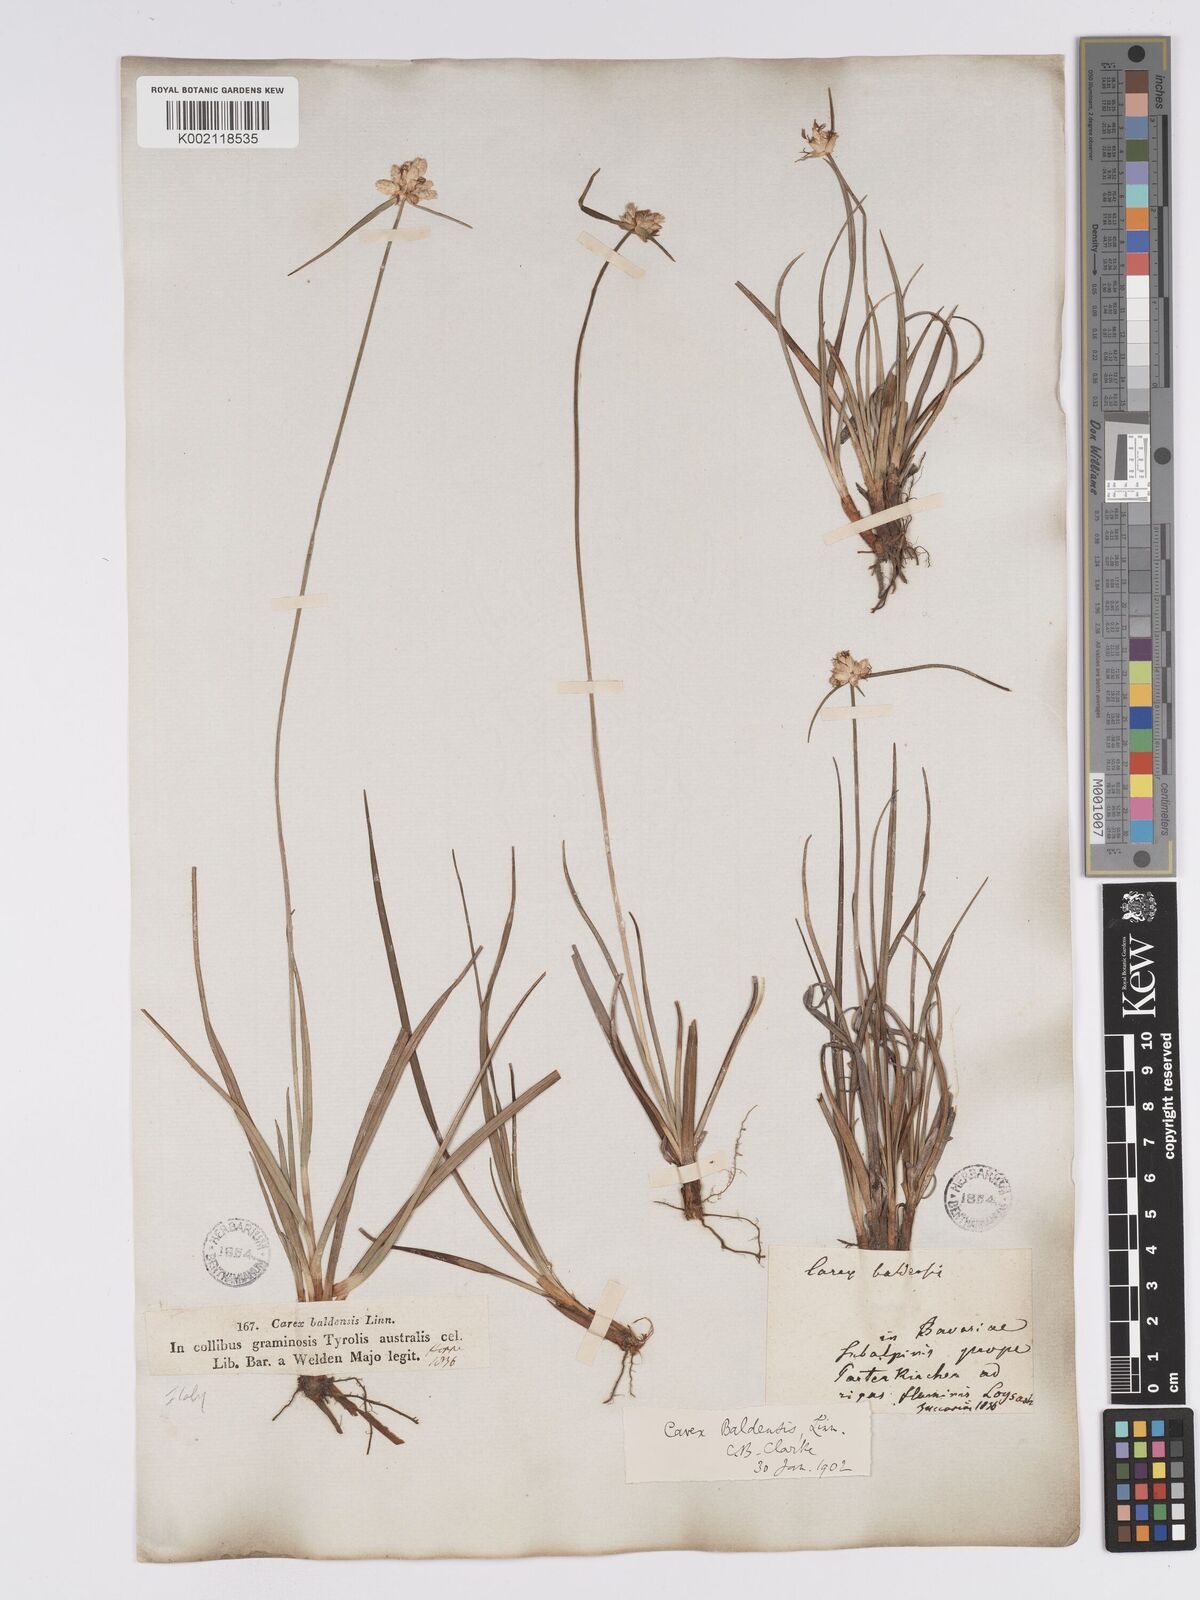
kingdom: Plantae
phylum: Tracheophyta
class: Liliopsida
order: Poales
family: Cyperaceae
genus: Carex
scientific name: Carex baldensis
